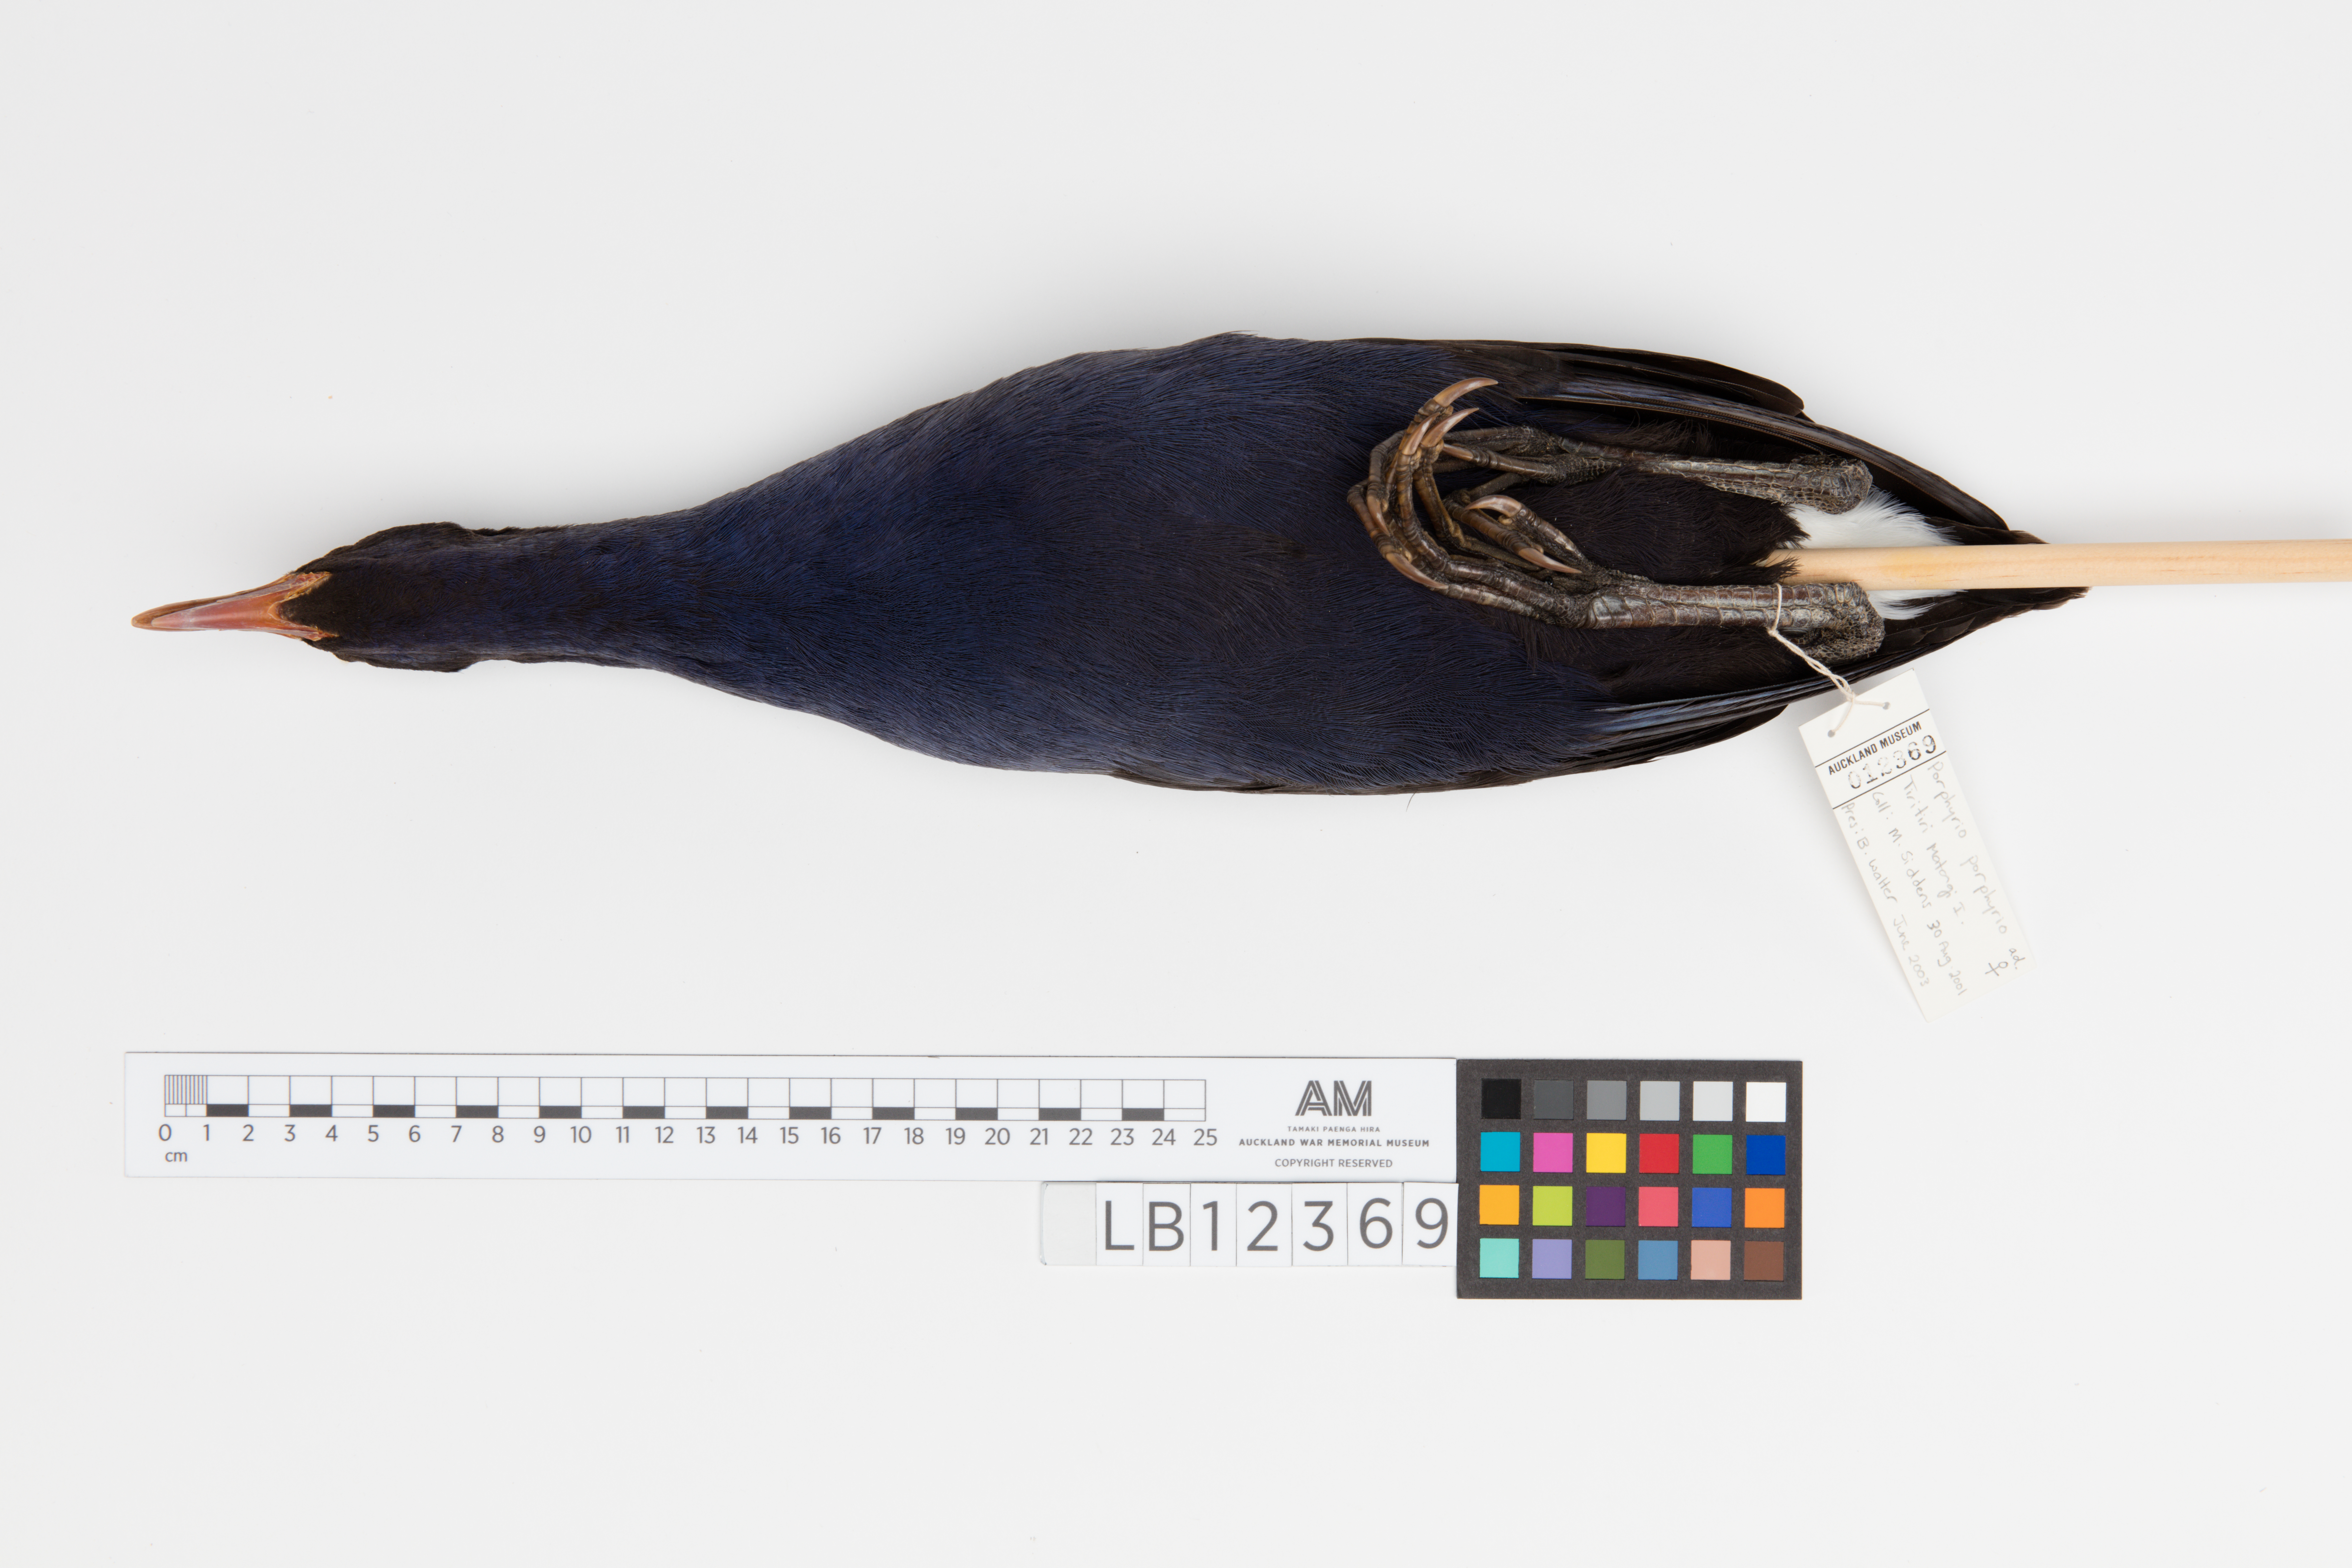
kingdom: Animalia
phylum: Chordata
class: Aves
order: Gruiformes
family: Rallidae
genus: Porphyrio
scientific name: Porphyrio melanotus
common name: Australasian swamphen
